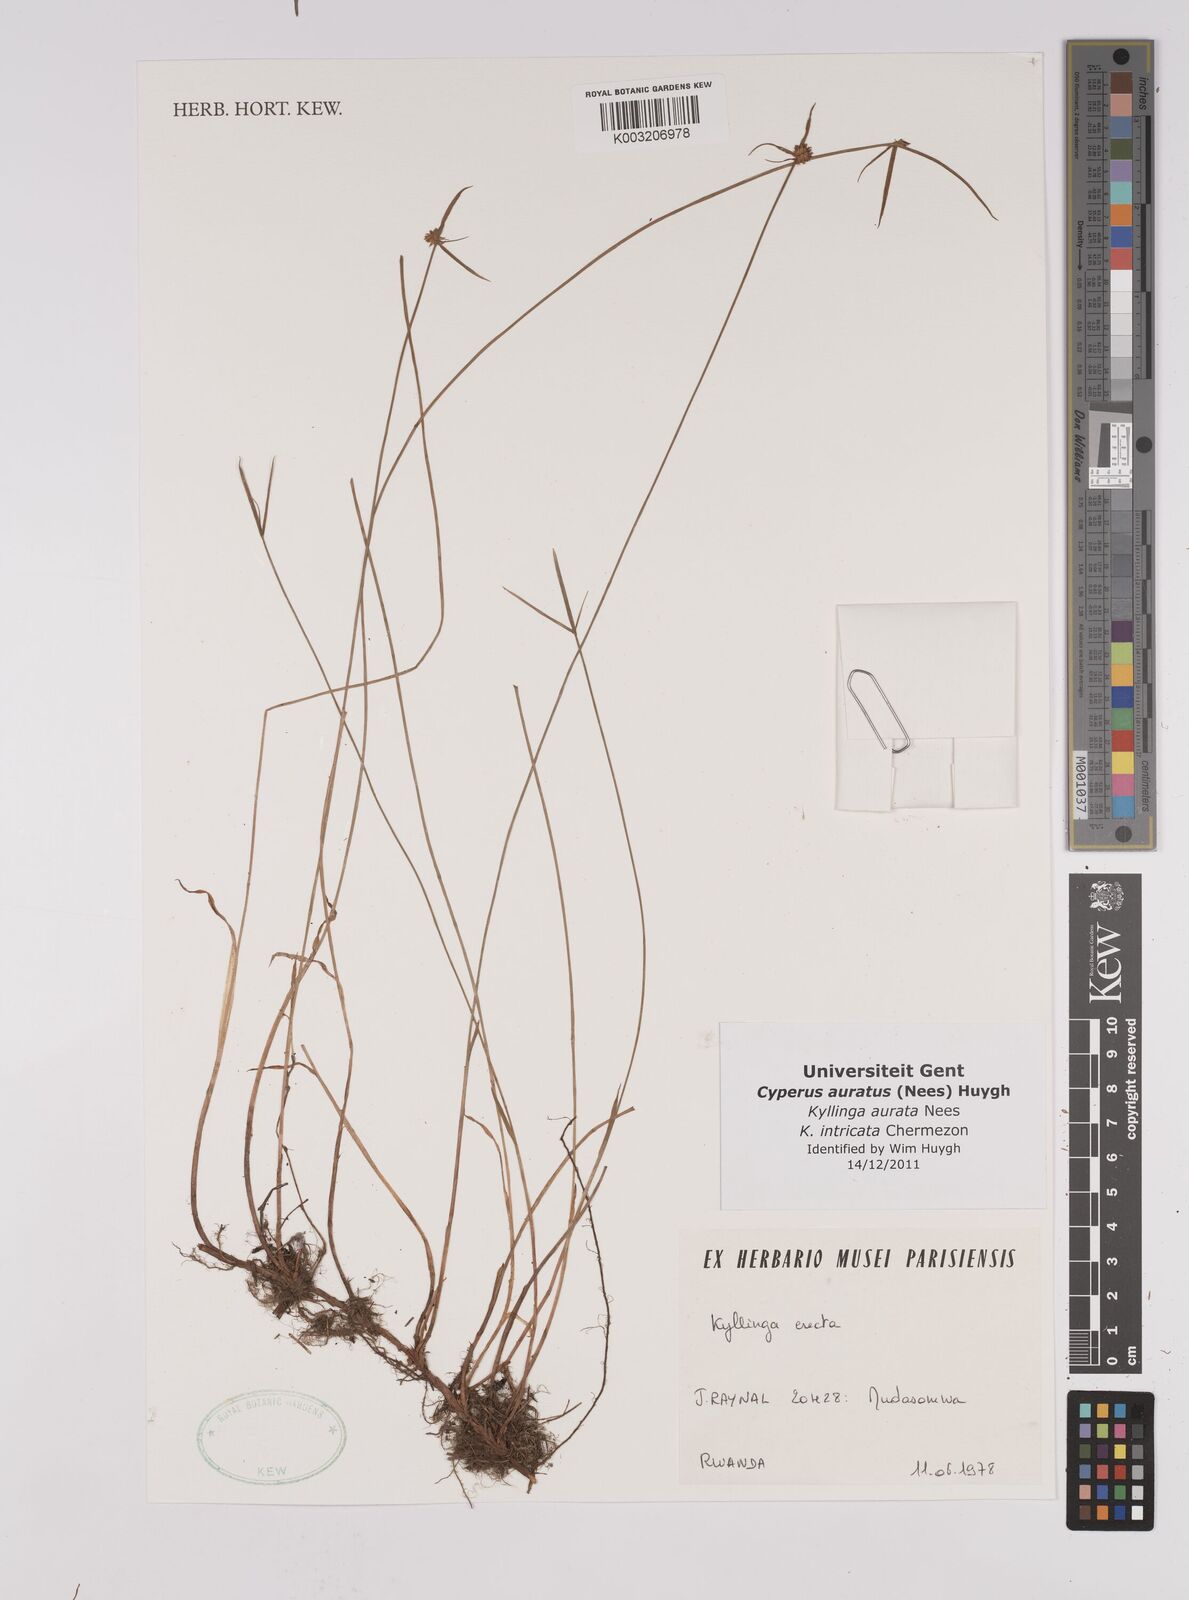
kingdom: Plantae
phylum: Tracheophyta
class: Liliopsida
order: Poales
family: Cyperaceae
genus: Cyperus
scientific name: Cyperus auratus
